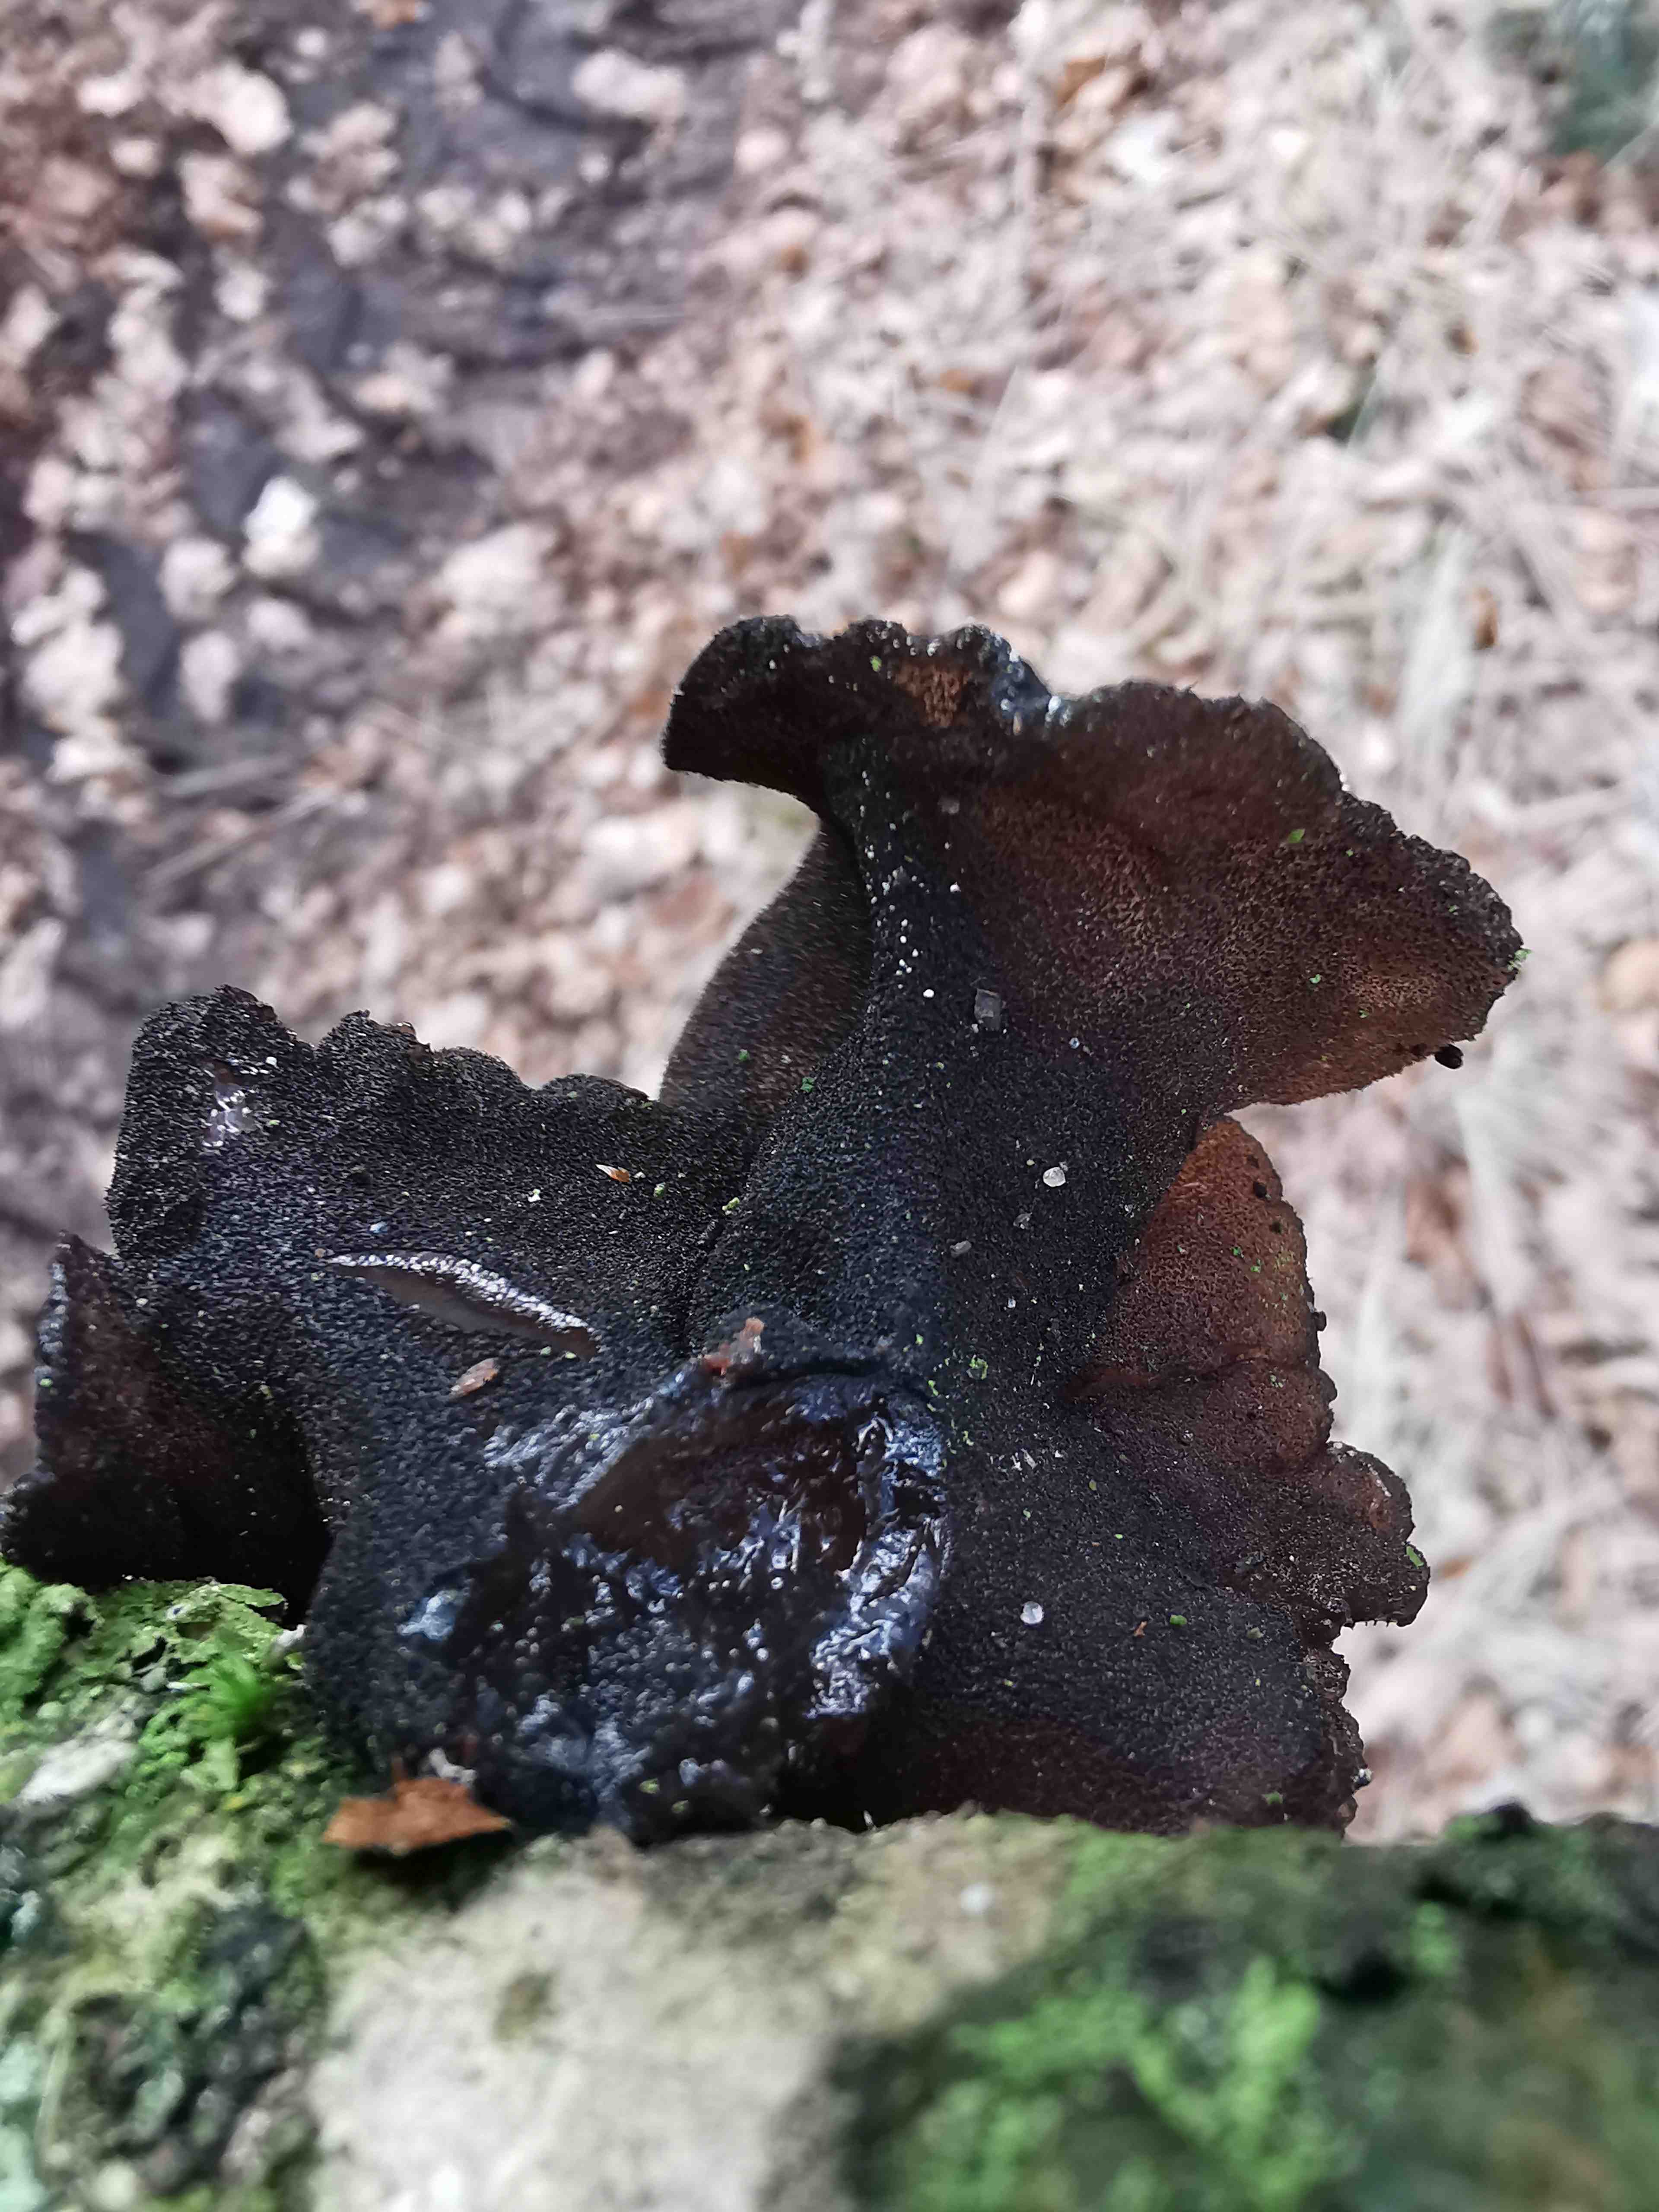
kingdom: Fungi
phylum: Basidiomycota
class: Agaricomycetes
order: Auriculariales
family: Auriculariaceae
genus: Exidia
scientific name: Exidia glandulosa
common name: ege-bævretop
